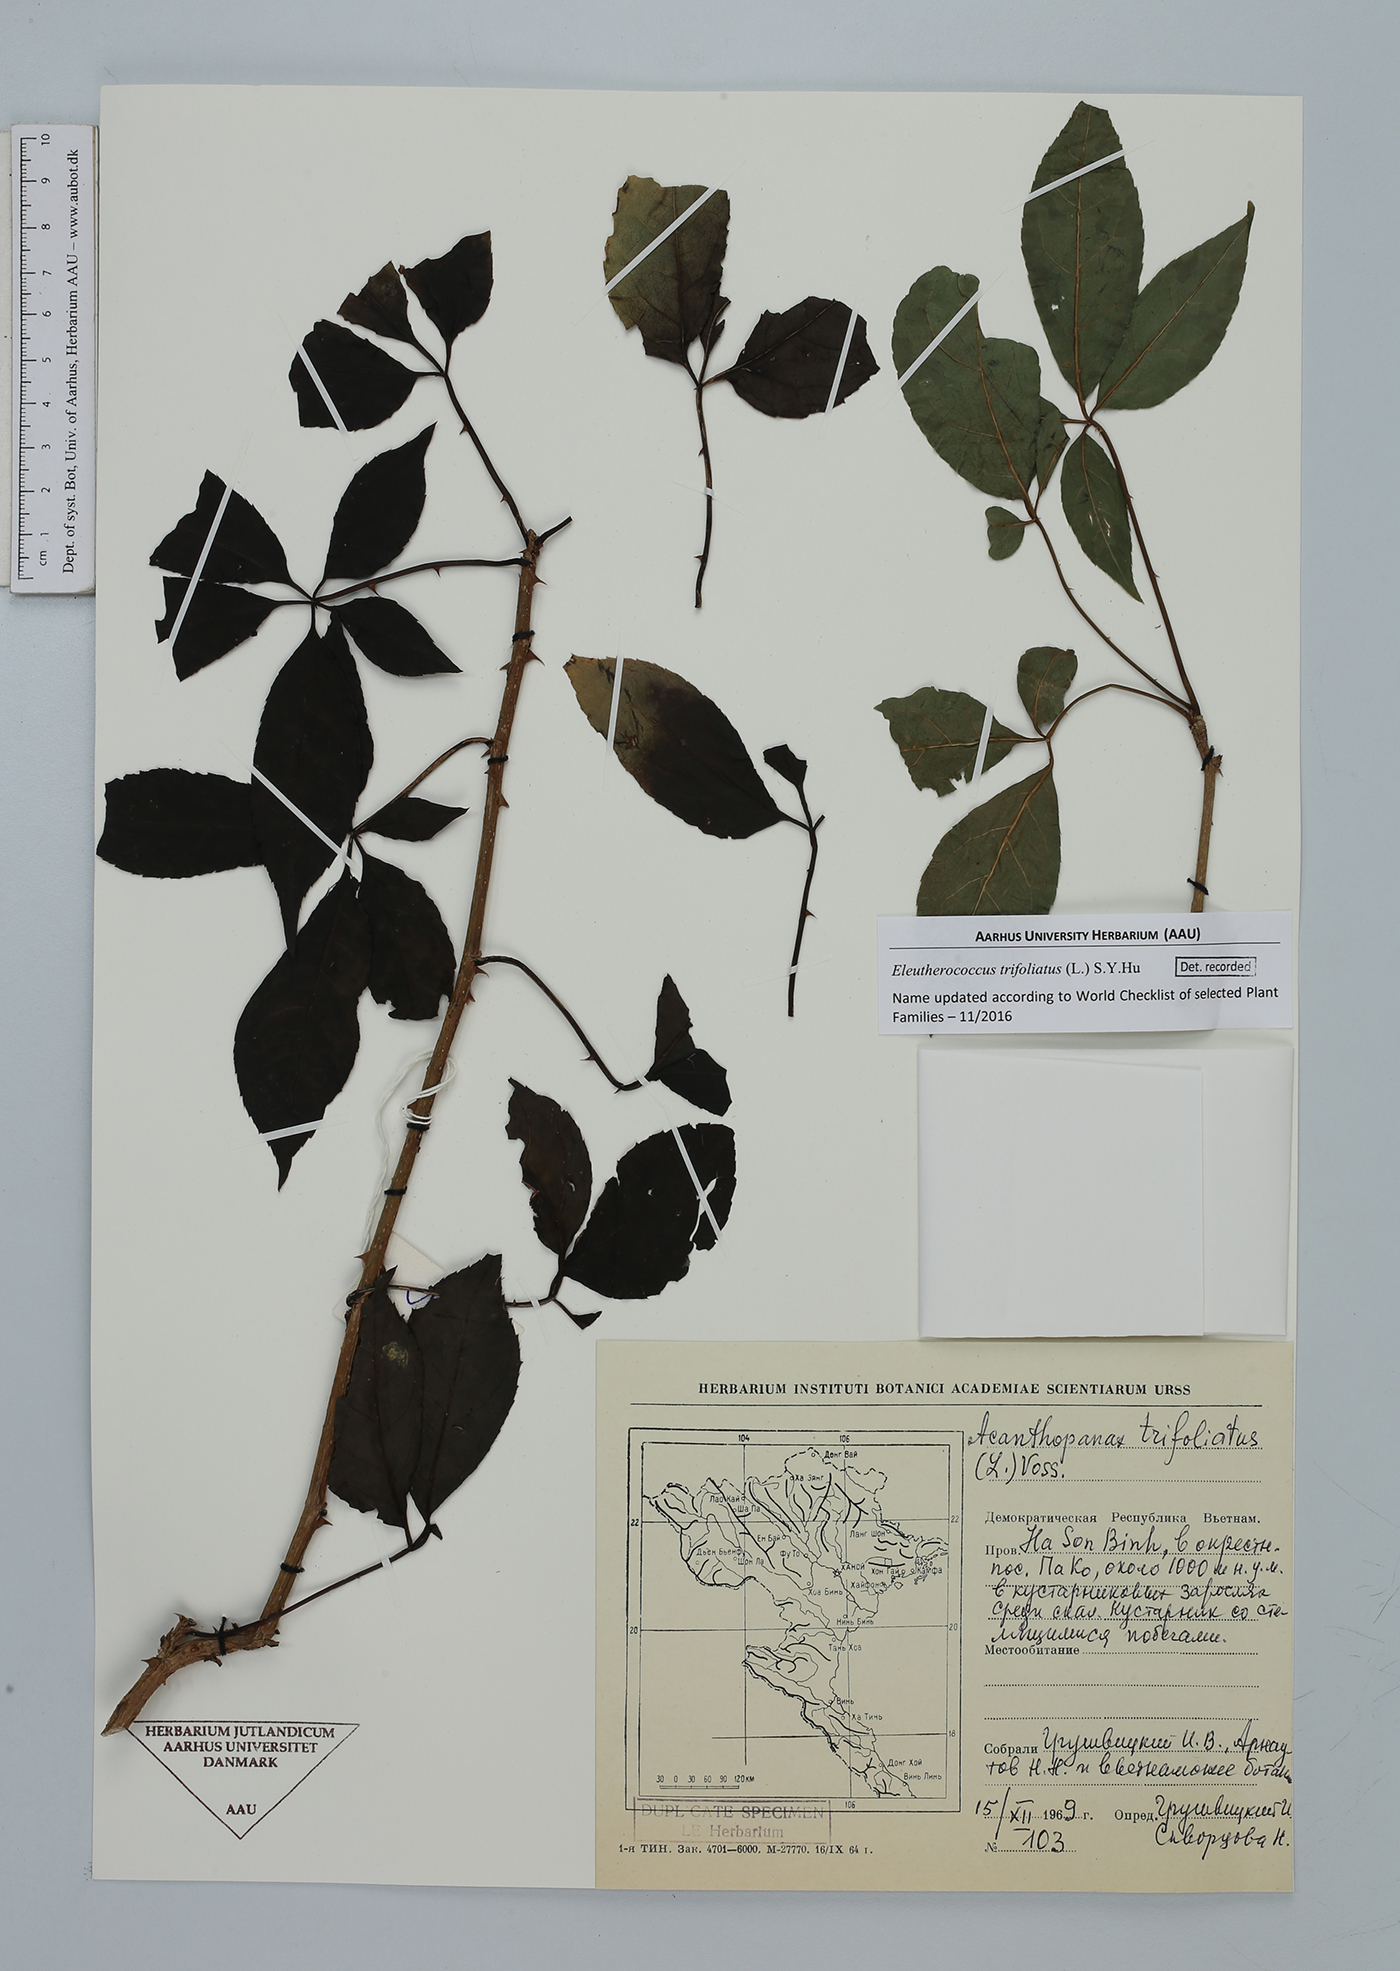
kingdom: Plantae
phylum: Tracheophyta
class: Magnoliopsida
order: Apiales
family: Araliaceae
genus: Eleutherococcus
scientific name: Eleutherococcus trifoliatus
